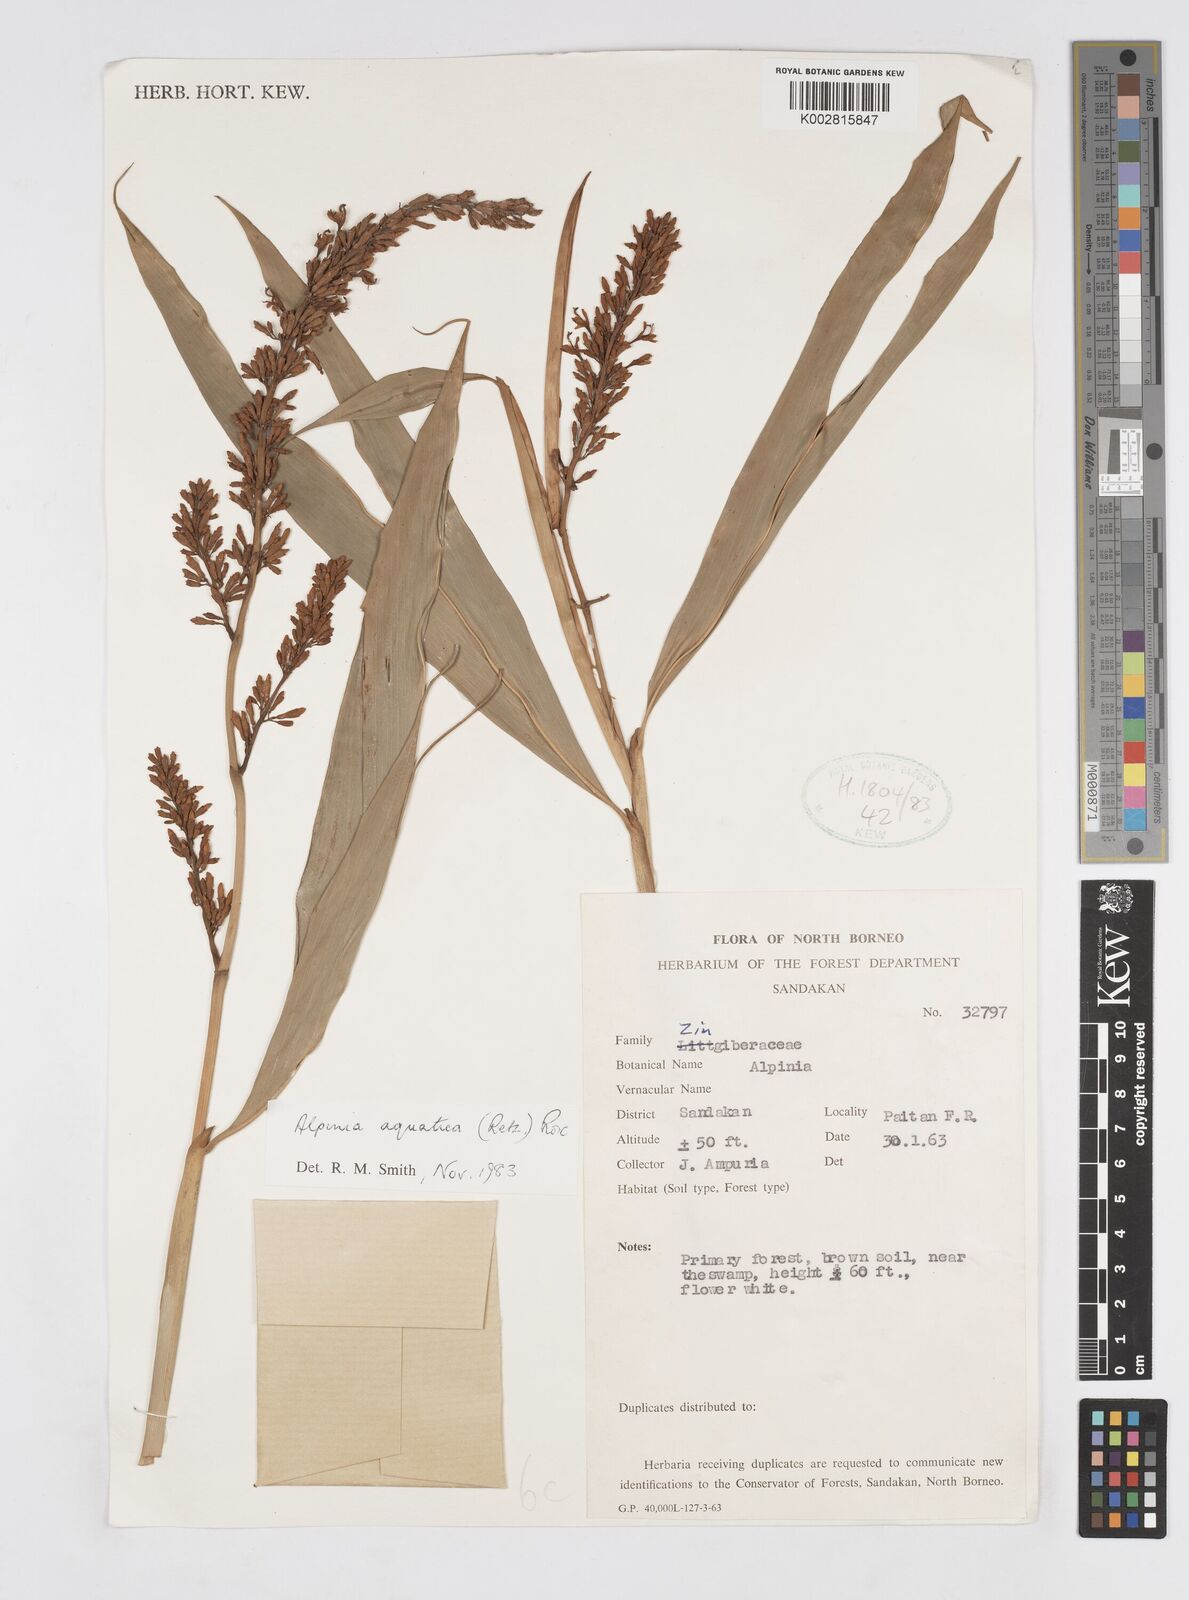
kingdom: Plantae
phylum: Tracheophyta
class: Liliopsida
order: Zingiberales
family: Zingiberaceae
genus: Alpinia
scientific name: Alpinia aquatica
